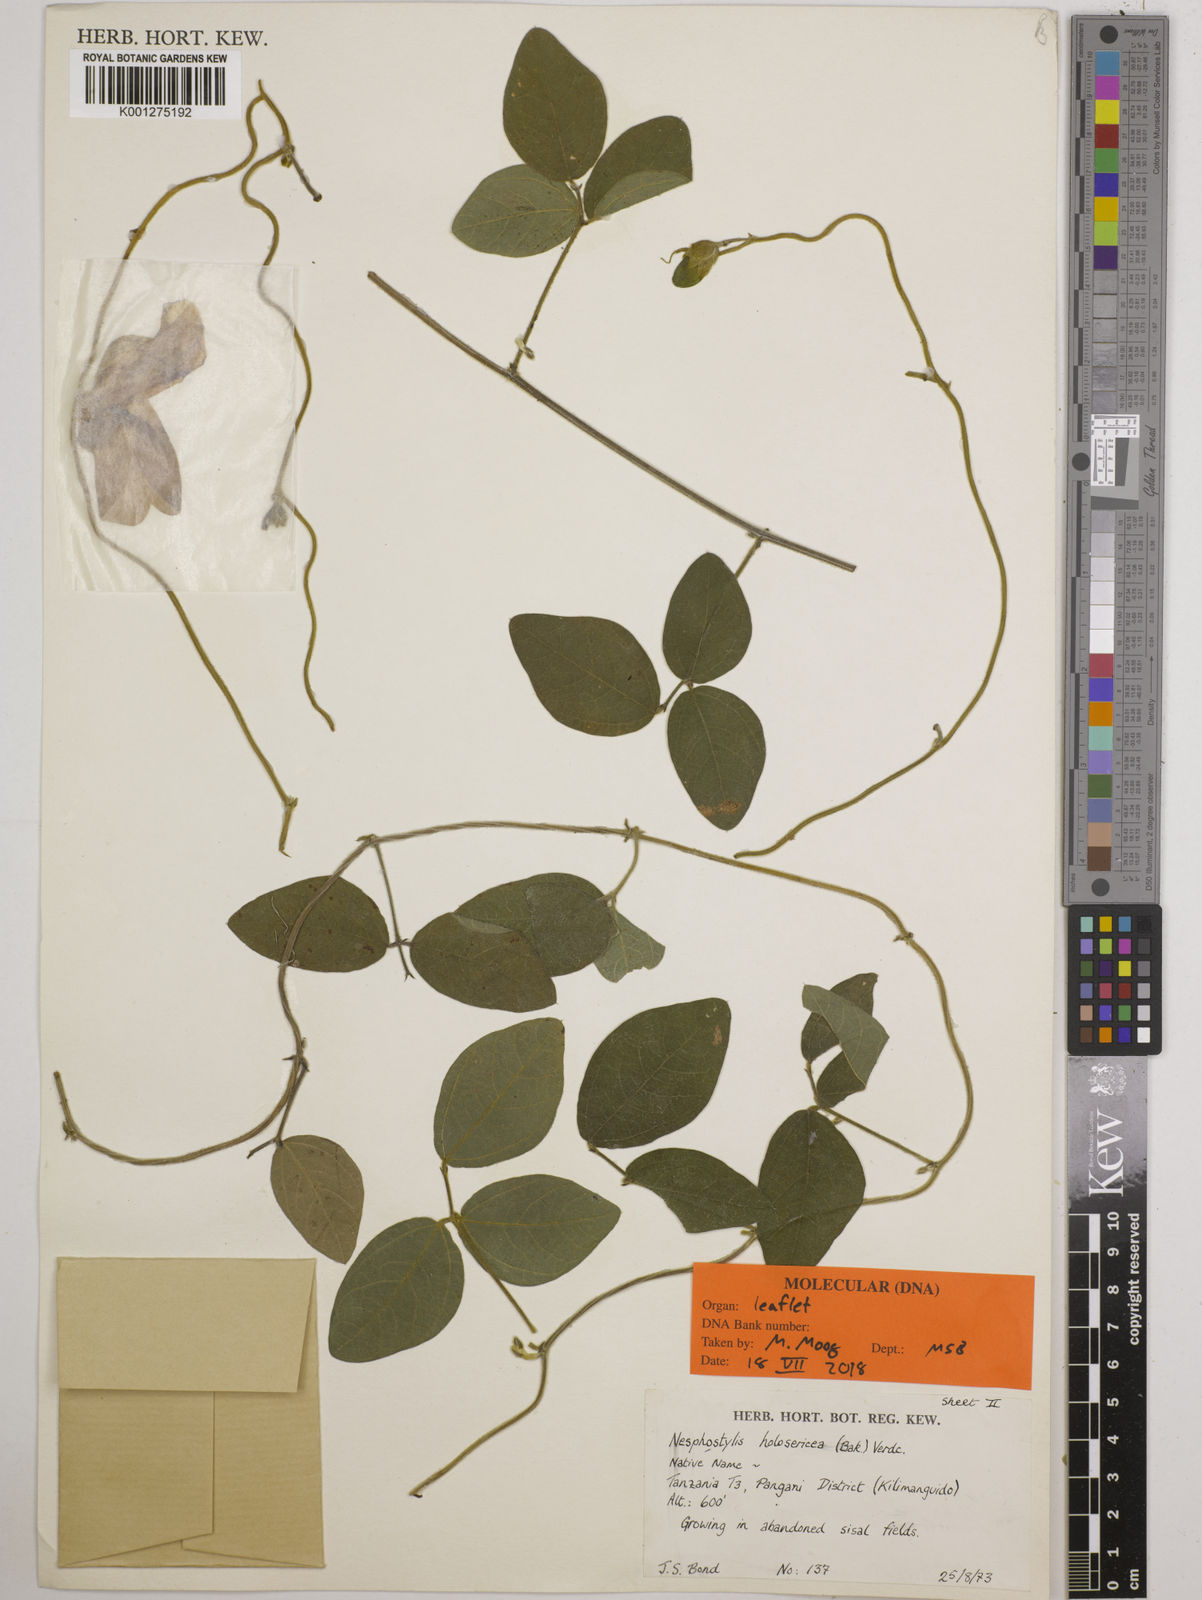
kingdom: Plantae
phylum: Tracheophyta
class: Magnoliopsida
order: Fabales
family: Fabaceae
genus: Nesphostylis
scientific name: Nesphostylis holosericea
